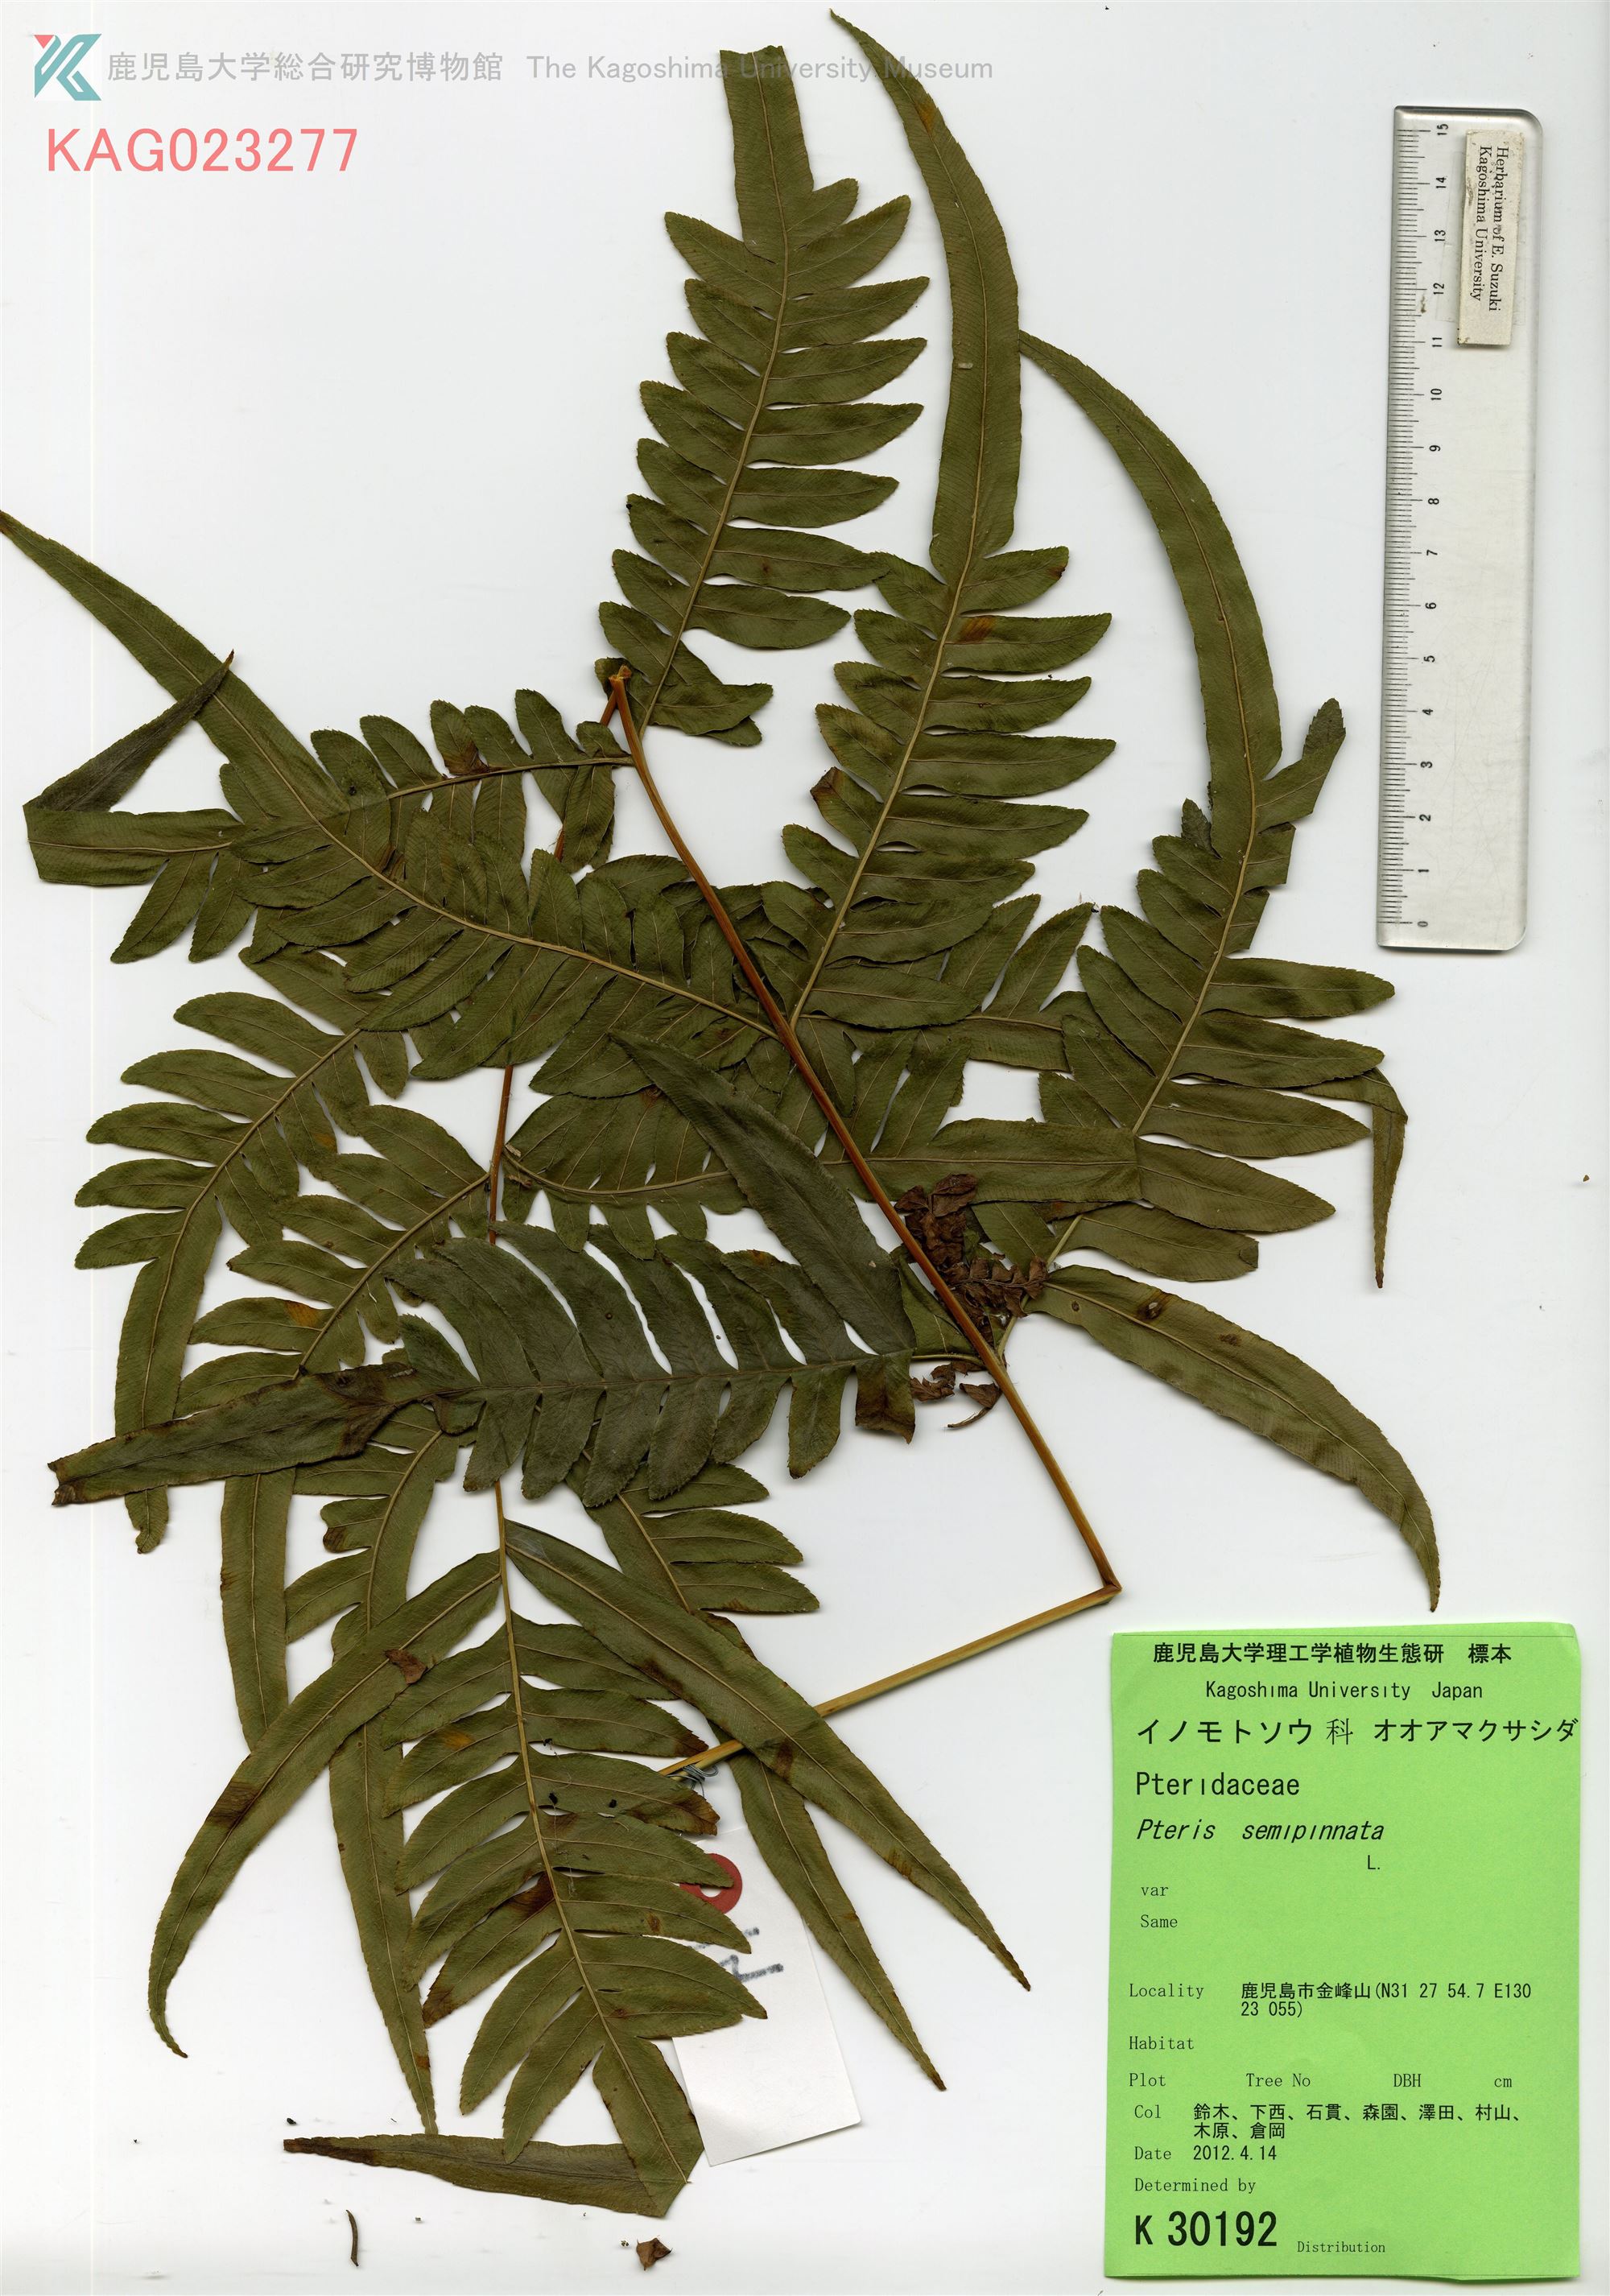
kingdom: Plantae
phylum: Tracheophyta
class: Polypodiopsida
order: Polypodiales
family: Pteridaceae
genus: Pteris
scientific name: Pteris sinensis
